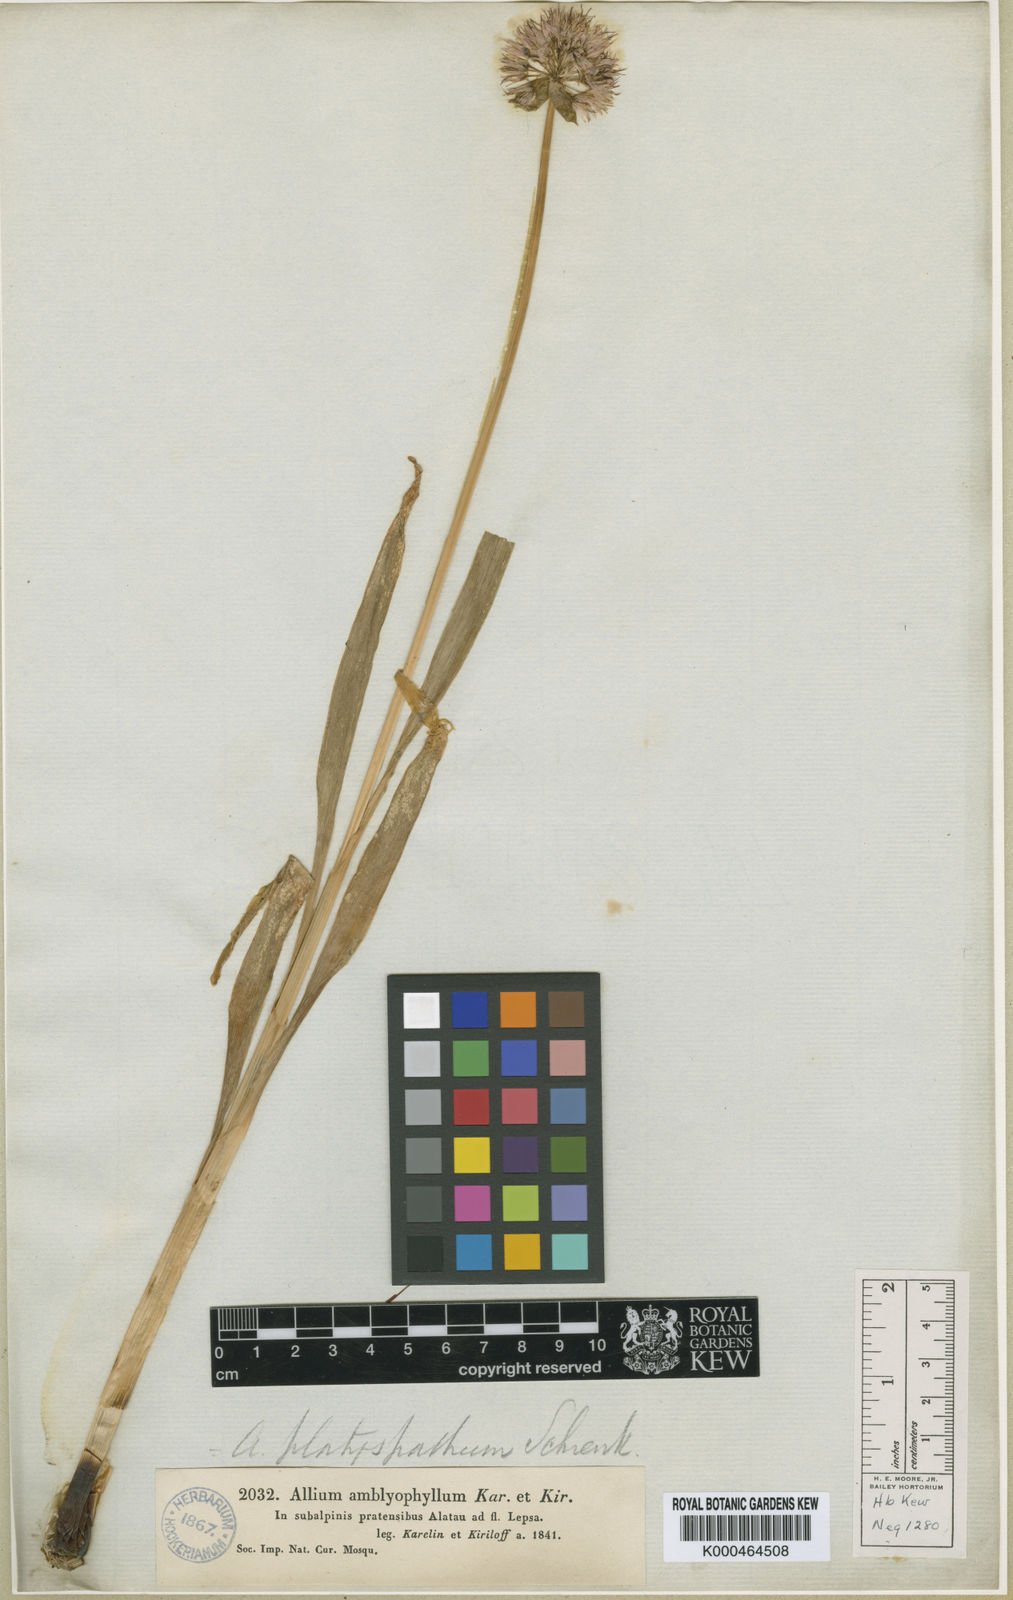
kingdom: Plantae
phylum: Tracheophyta
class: Liliopsida
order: Asparagales
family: Amaryllidaceae
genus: Allium
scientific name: Allium platyspathum
